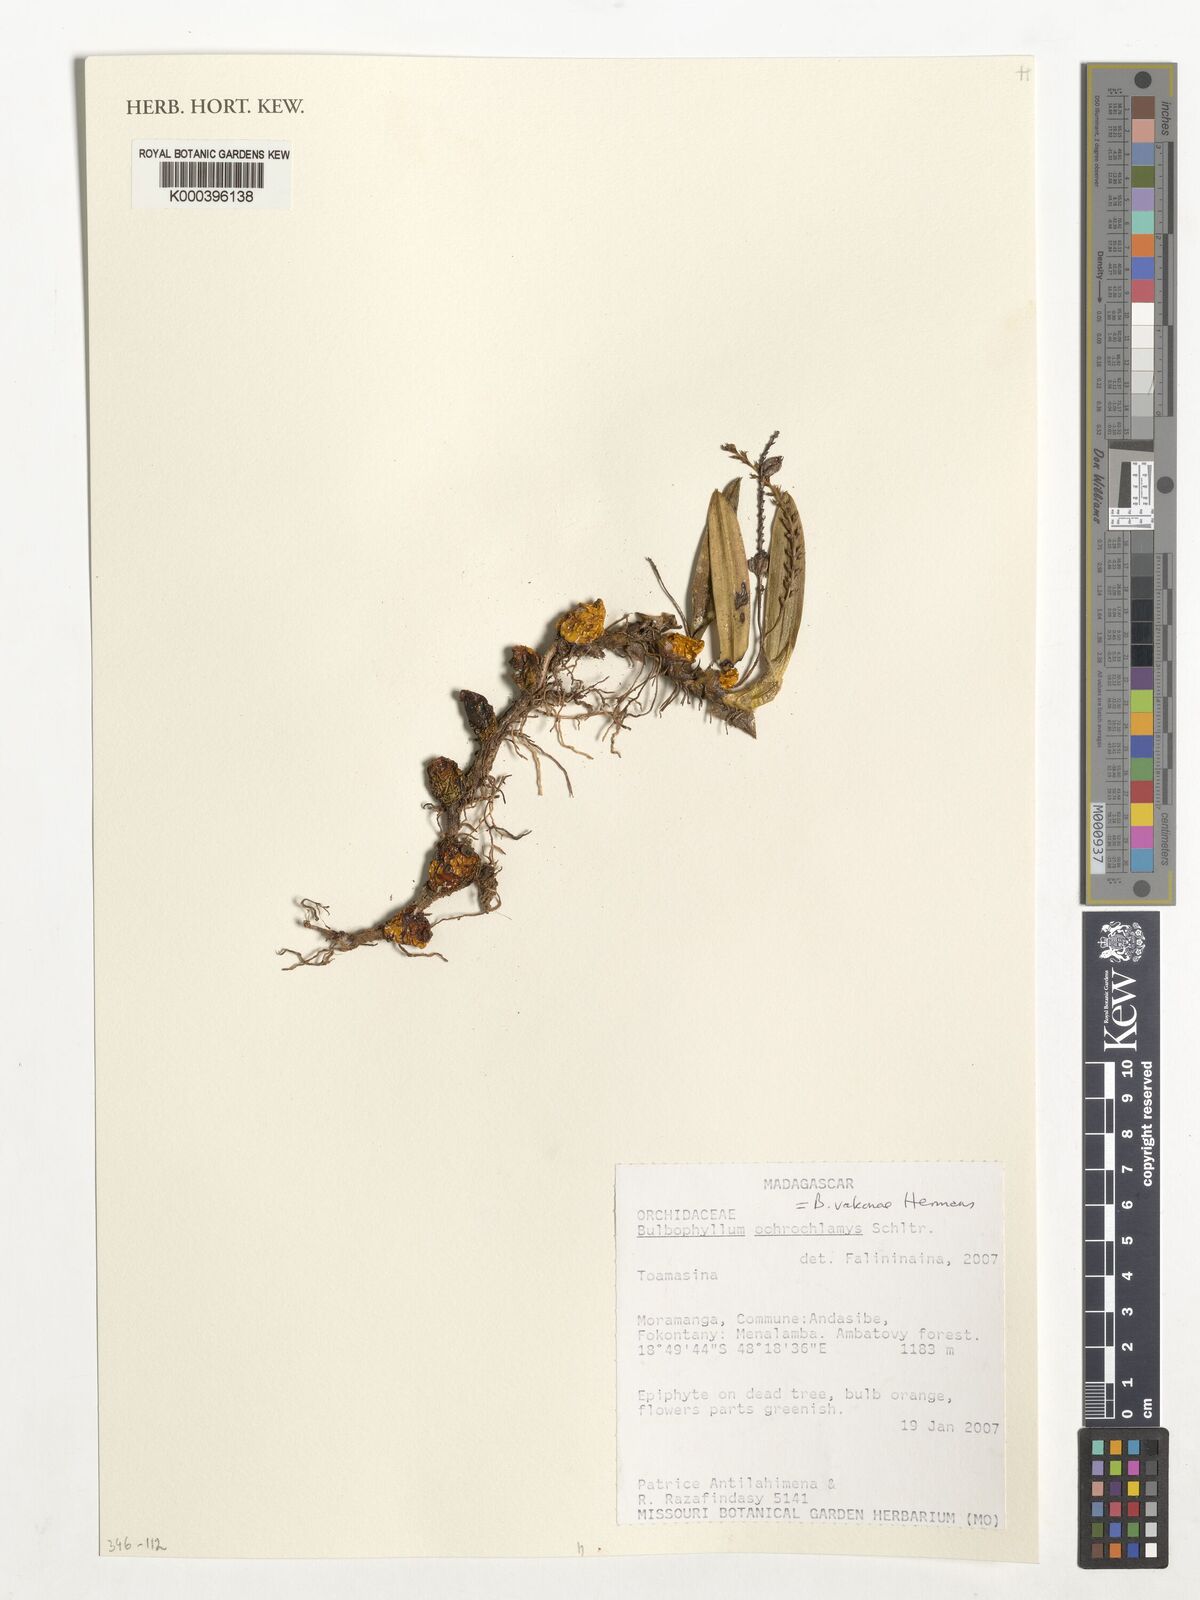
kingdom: Plantae
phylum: Tracheophyta
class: Liliopsida
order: Asparagales
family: Orchidaceae
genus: Bulbophyllum
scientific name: Bulbophyllum vakonae
